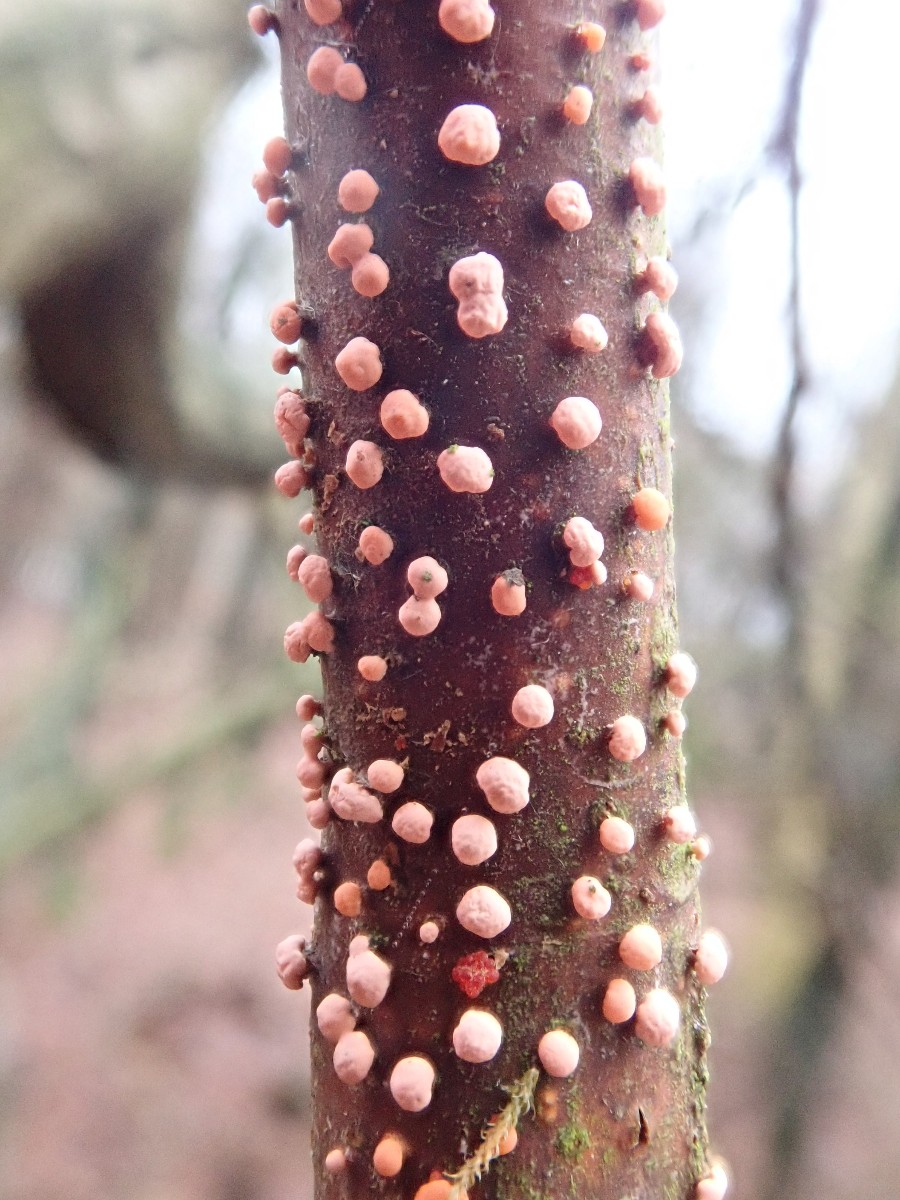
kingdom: Fungi
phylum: Ascomycota
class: Sordariomycetes
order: Hypocreales
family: Nectriaceae
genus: Nectria
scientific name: Nectria cinnabarina
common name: almindelig cinnobersvamp
